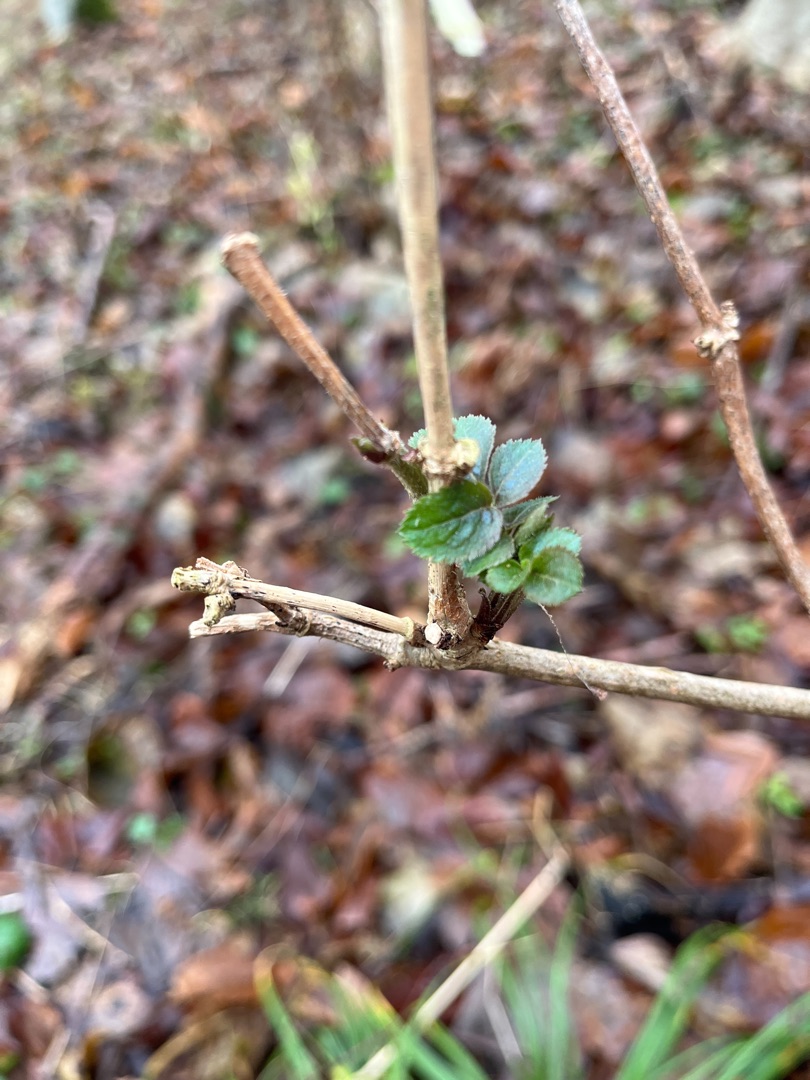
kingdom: Plantae
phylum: Tracheophyta
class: Magnoliopsida
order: Dipsacales
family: Viburnaceae
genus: Sambucus
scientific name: Sambucus nigra
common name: Almindelig hyld
